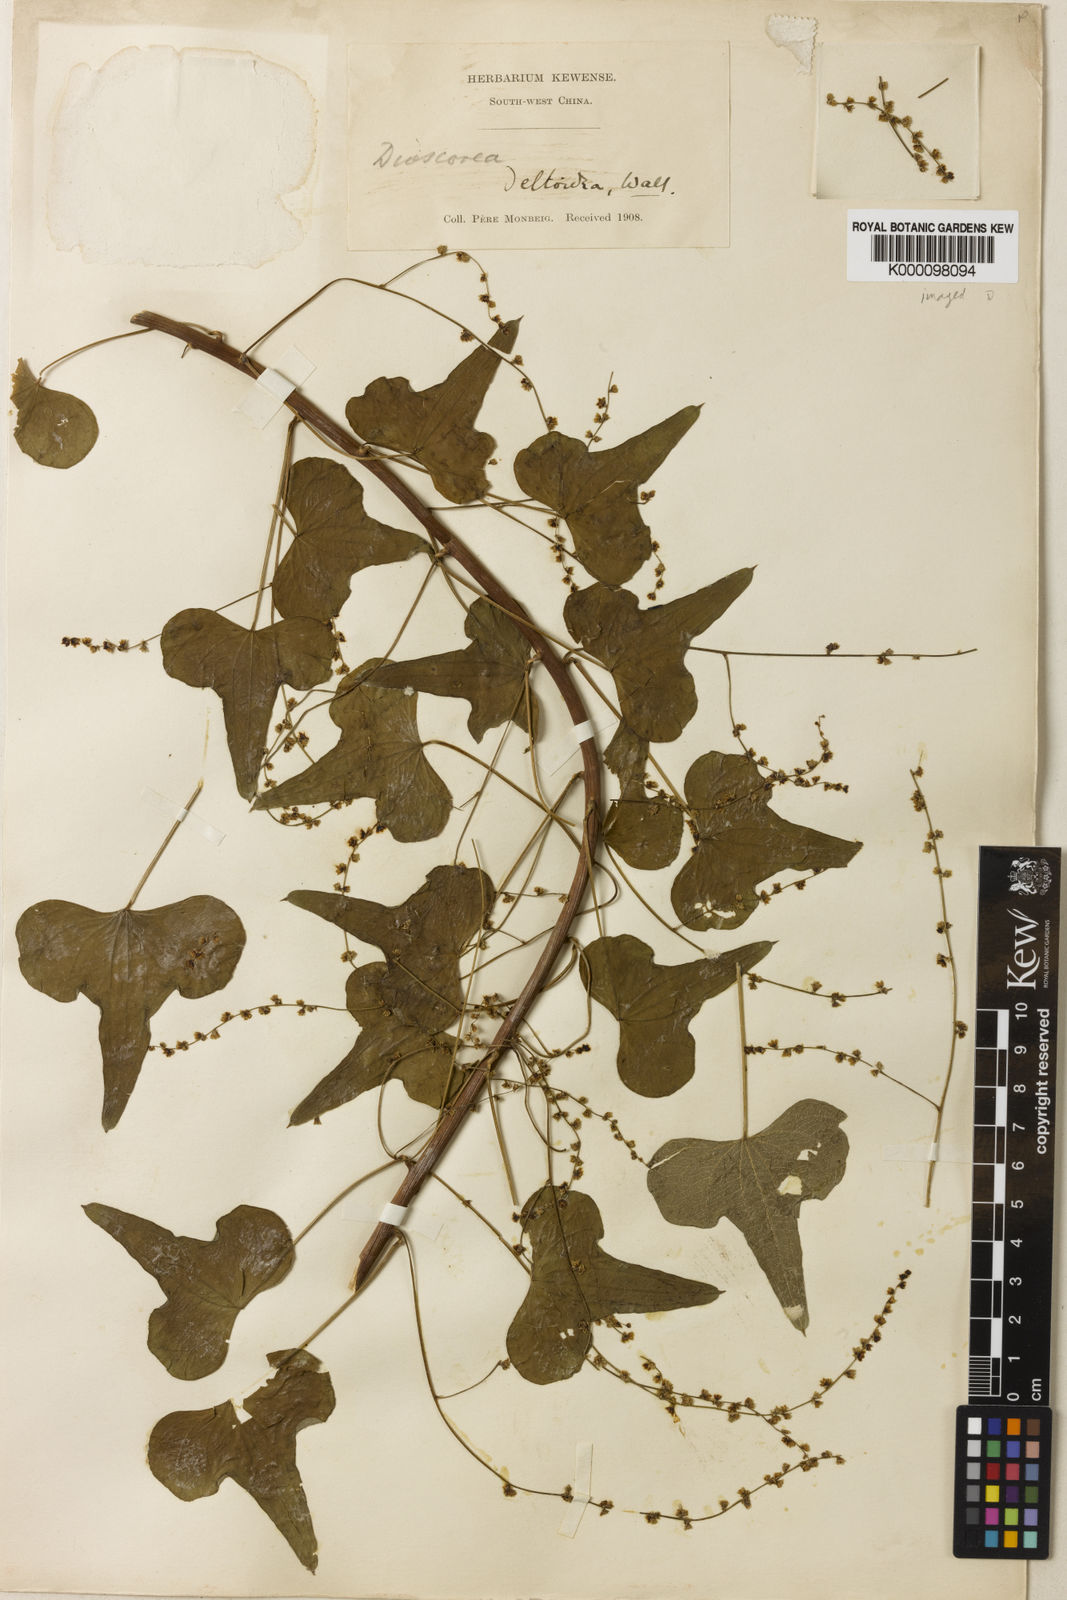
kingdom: Plantae
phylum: Tracheophyta
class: Liliopsida
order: Dioscoreales
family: Dioscoreaceae
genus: Dioscorea
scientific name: Dioscorea deltoidea
